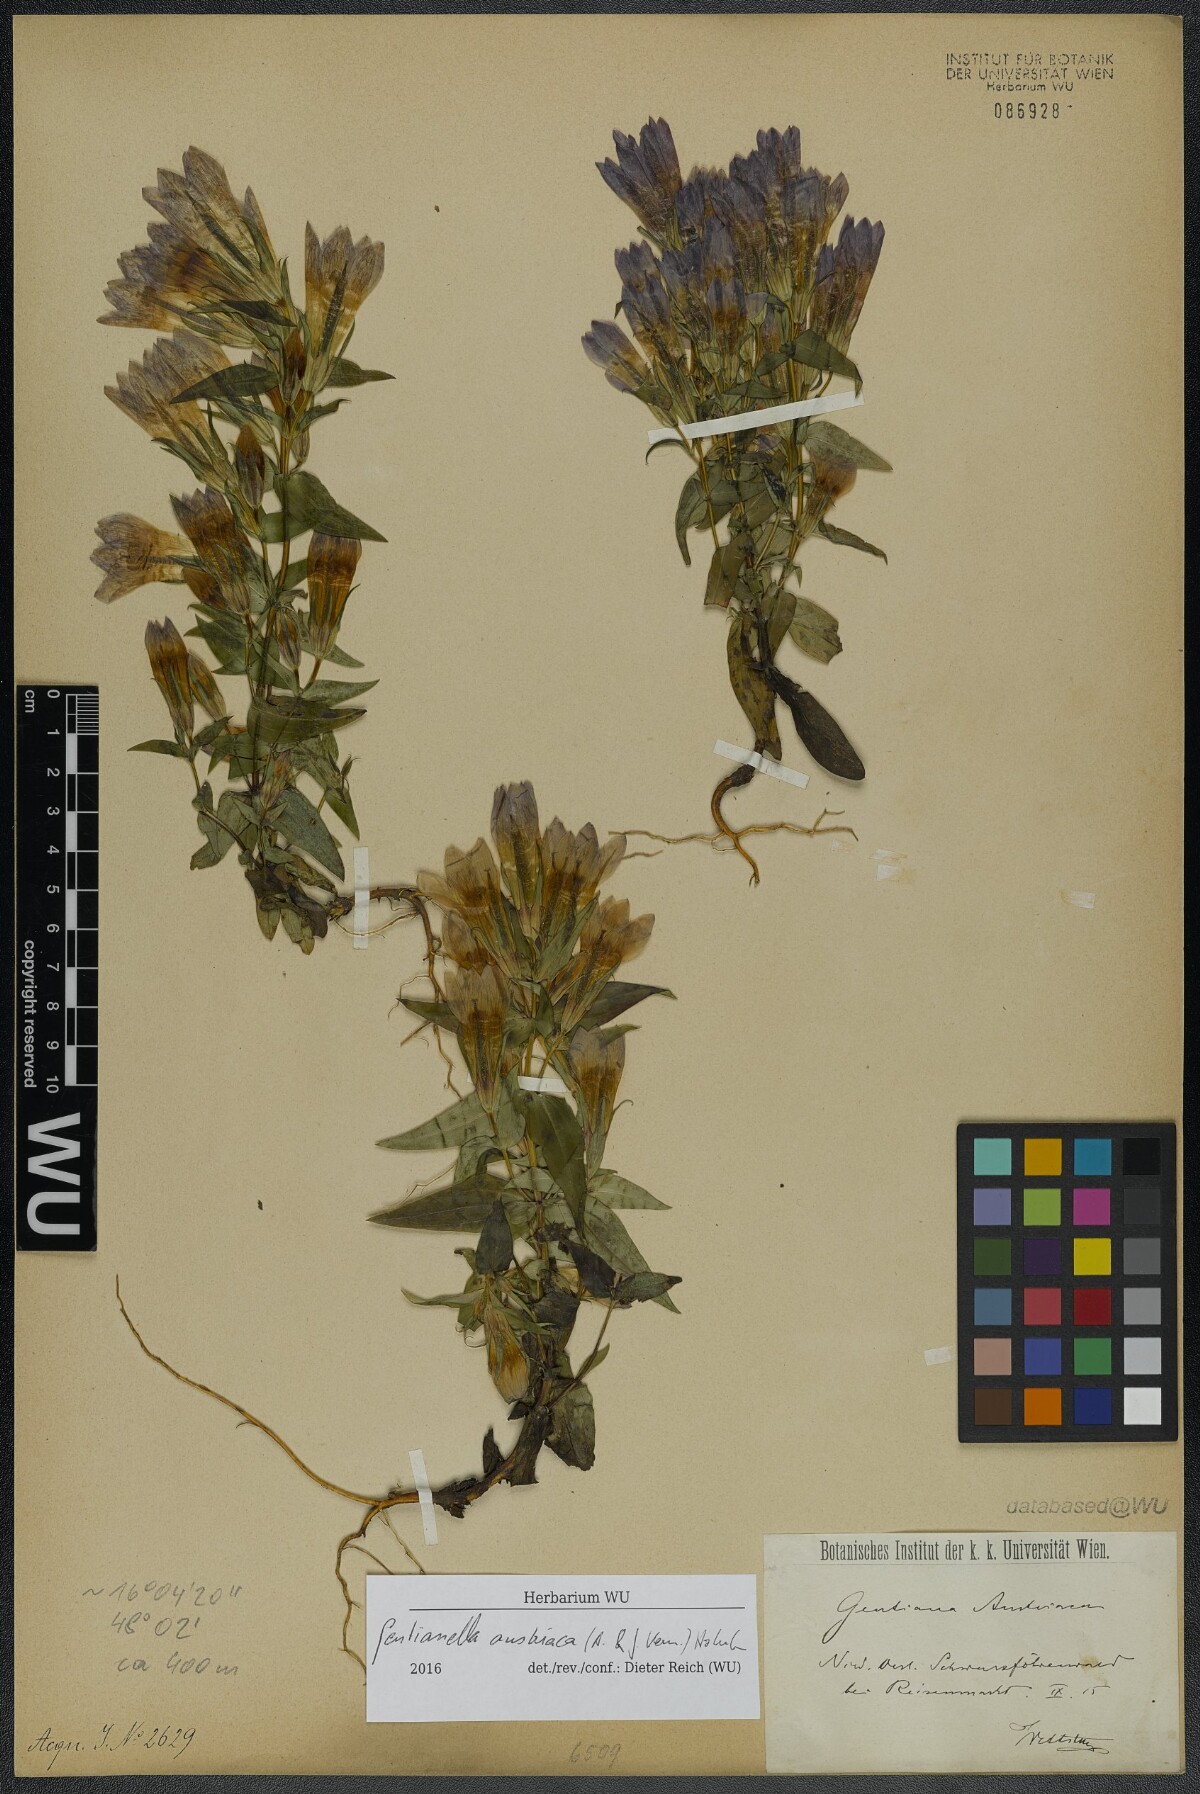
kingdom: Plantae
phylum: Tracheophyta
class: Magnoliopsida
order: Gentianales
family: Gentianaceae
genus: Gentianella
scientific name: Gentianella austriaca
